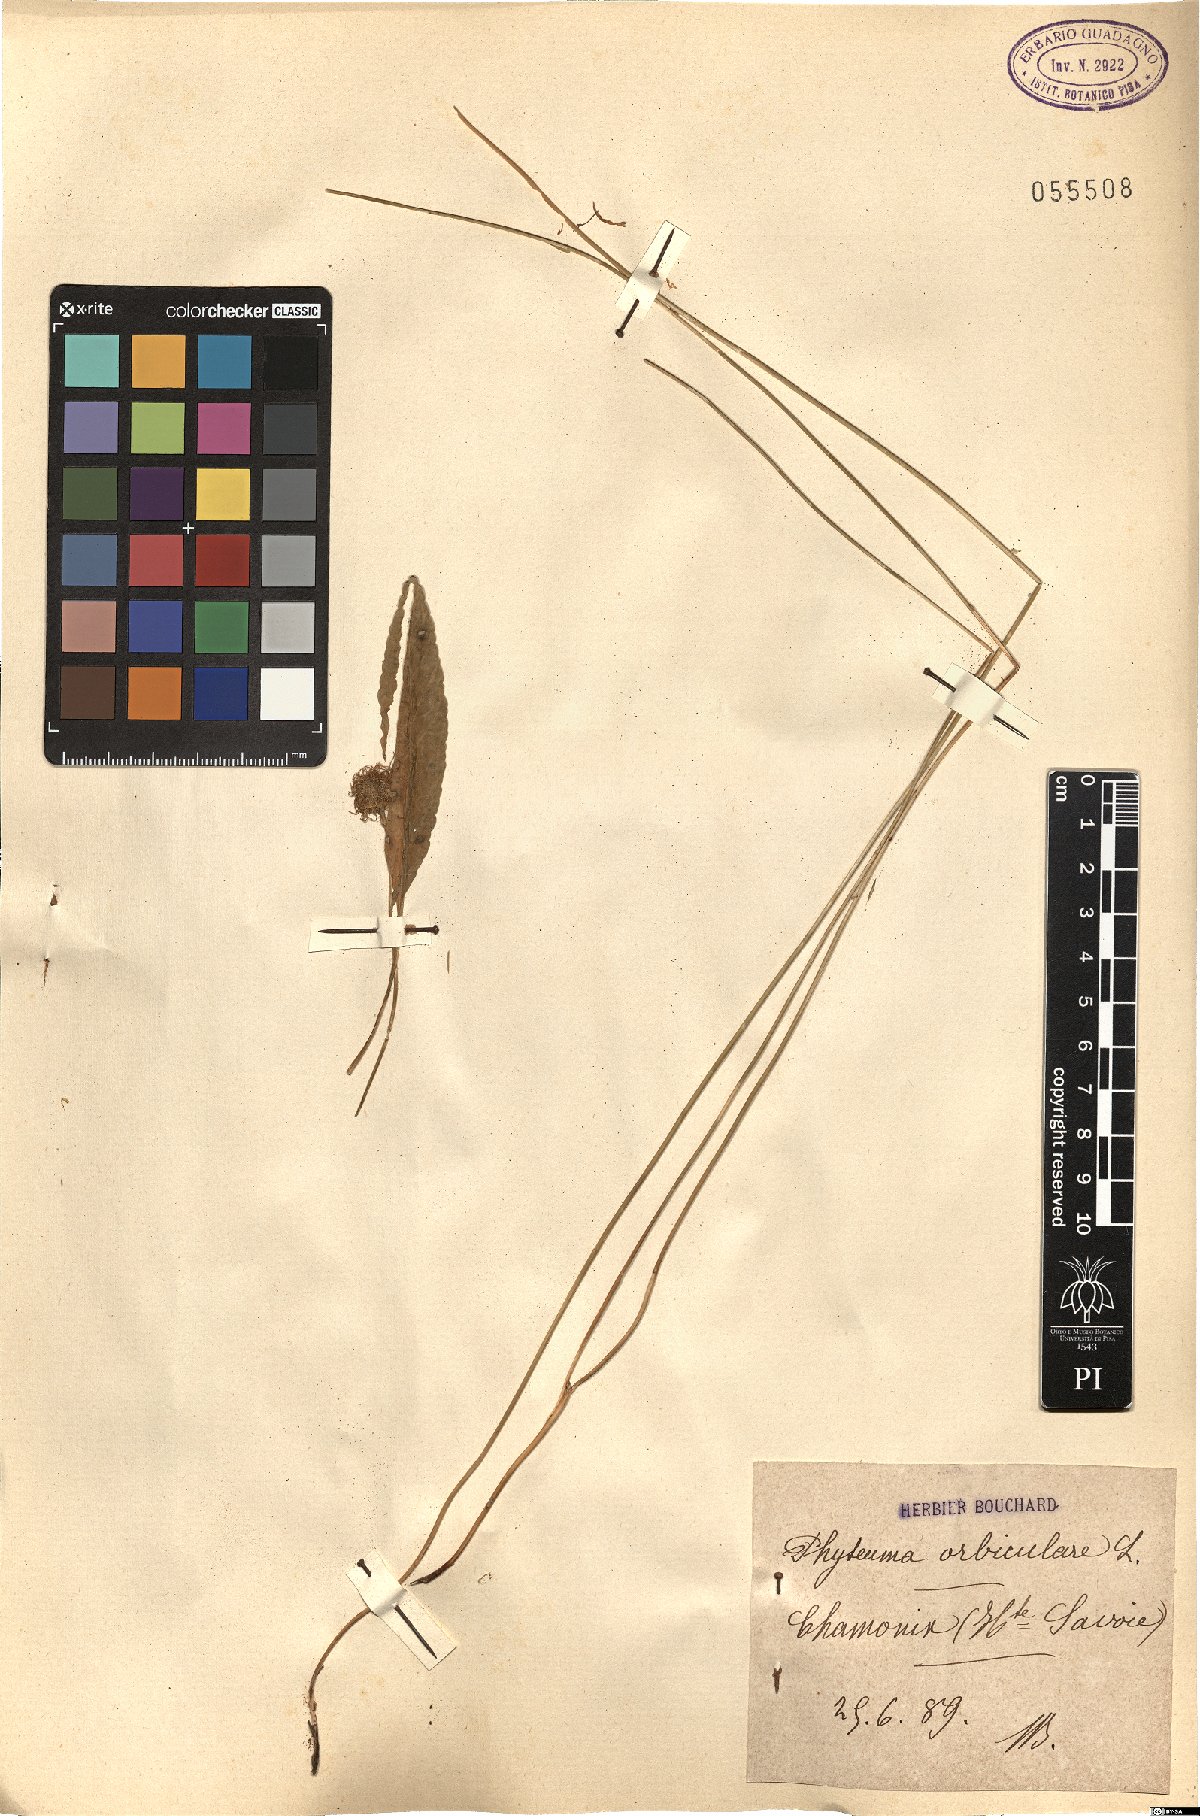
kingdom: Plantae
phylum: Tracheophyta
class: Magnoliopsida
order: Asterales
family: Campanulaceae
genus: Phyteuma
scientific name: Phyteuma orbiculare
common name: Round-headed rampion
